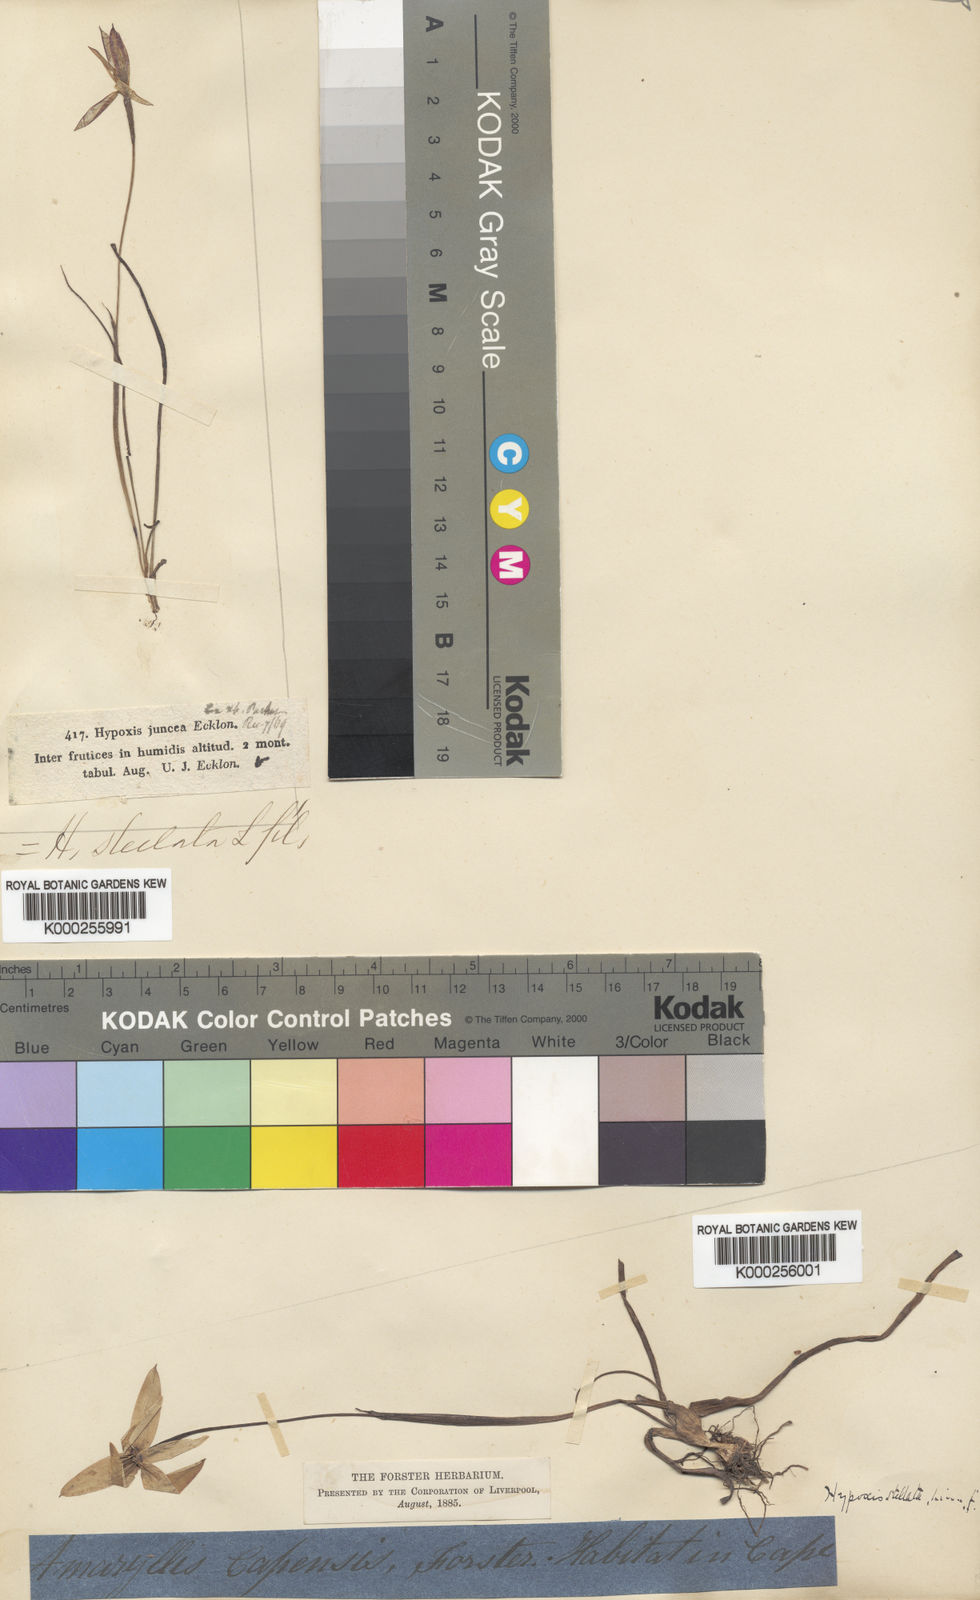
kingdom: Plantae
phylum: Tracheophyta
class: Liliopsida
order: Asparagales
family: Hypoxidaceae
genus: Pauridia
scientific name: Pauridia capensis
